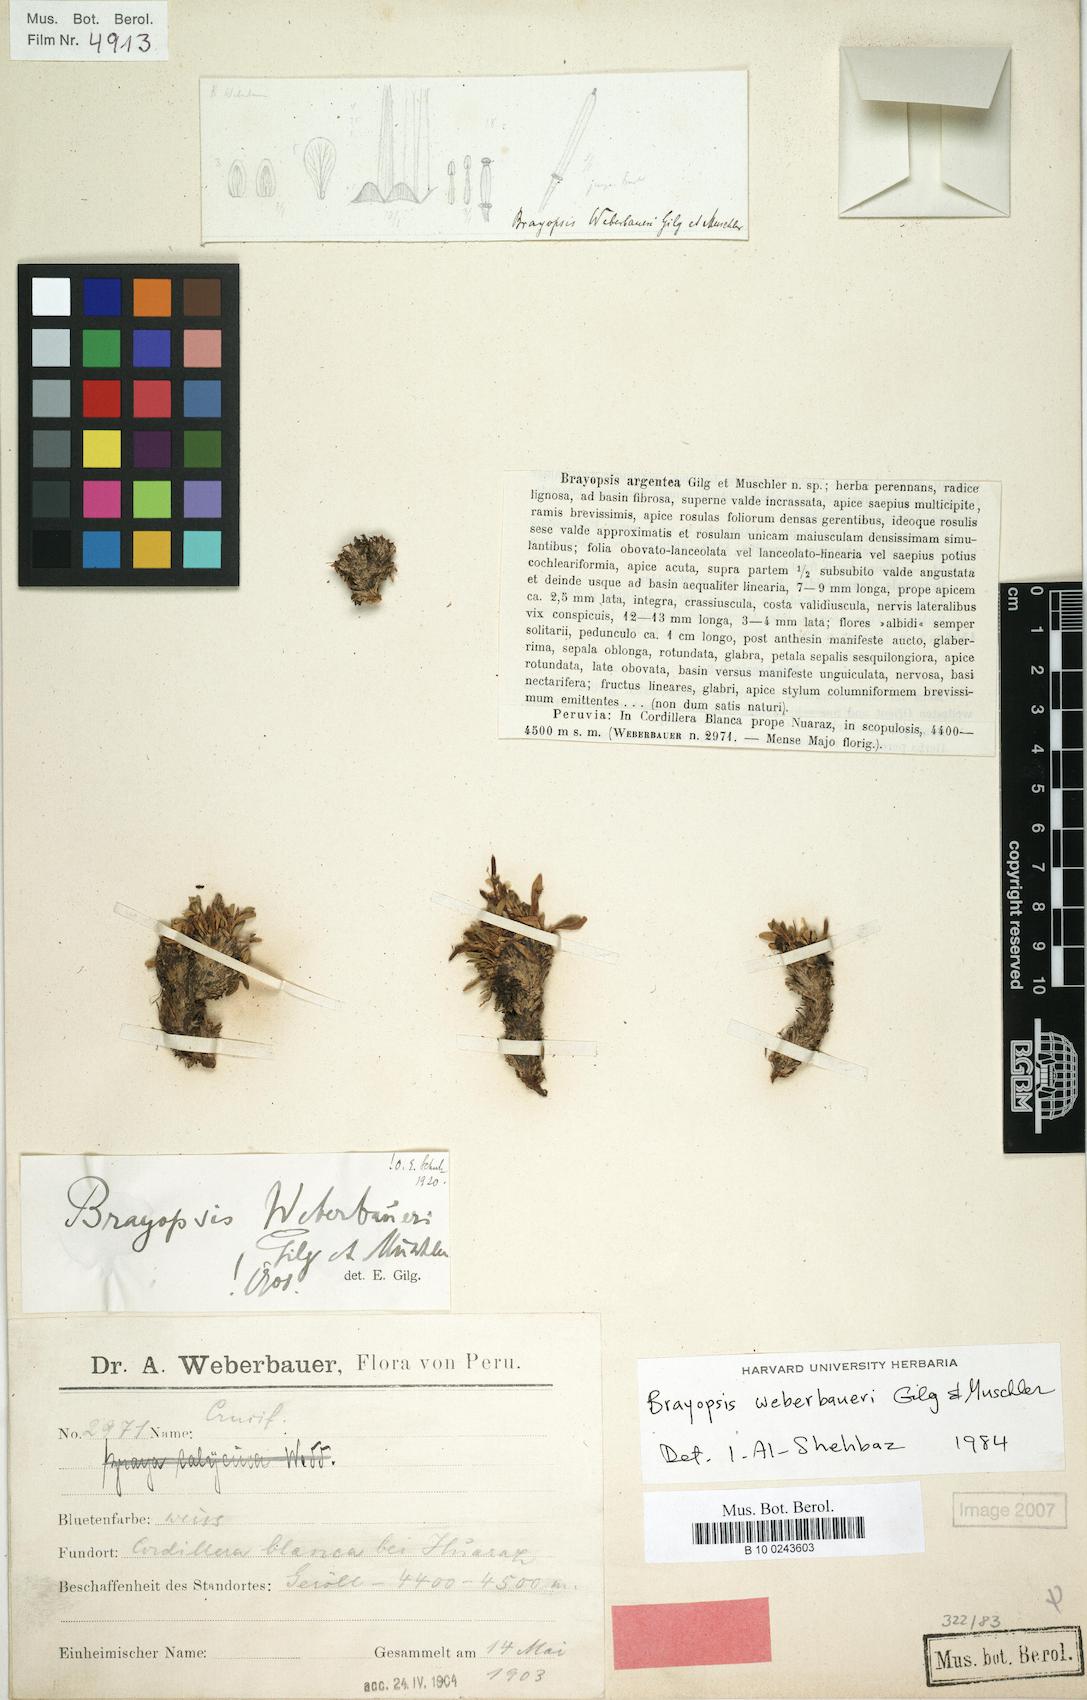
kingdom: Plantae
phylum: Tracheophyta
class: Magnoliopsida
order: Brassicales
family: Brassicaceae
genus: Brayopsis
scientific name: Brayopsis calycina
